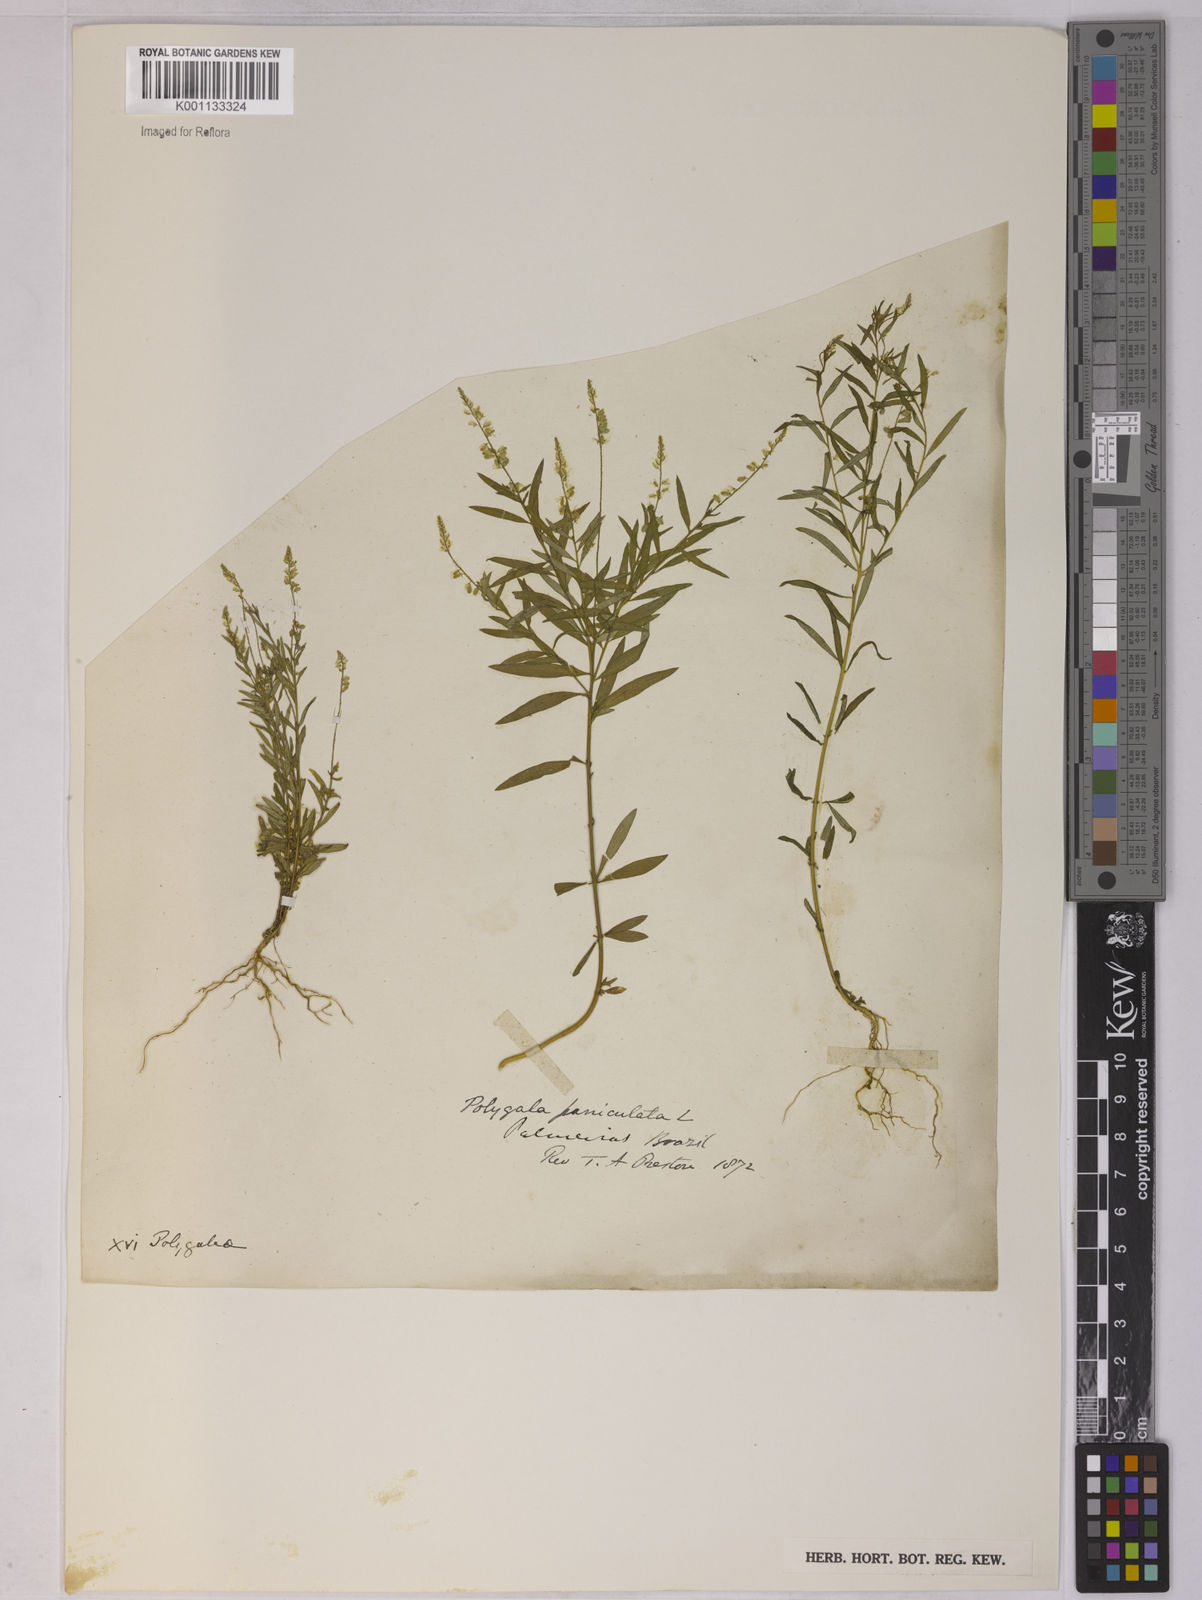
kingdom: Plantae
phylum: Tracheophyta
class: Magnoliopsida
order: Fabales
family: Polygalaceae
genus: Polygala
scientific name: Polygala paniculata
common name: Orosne
